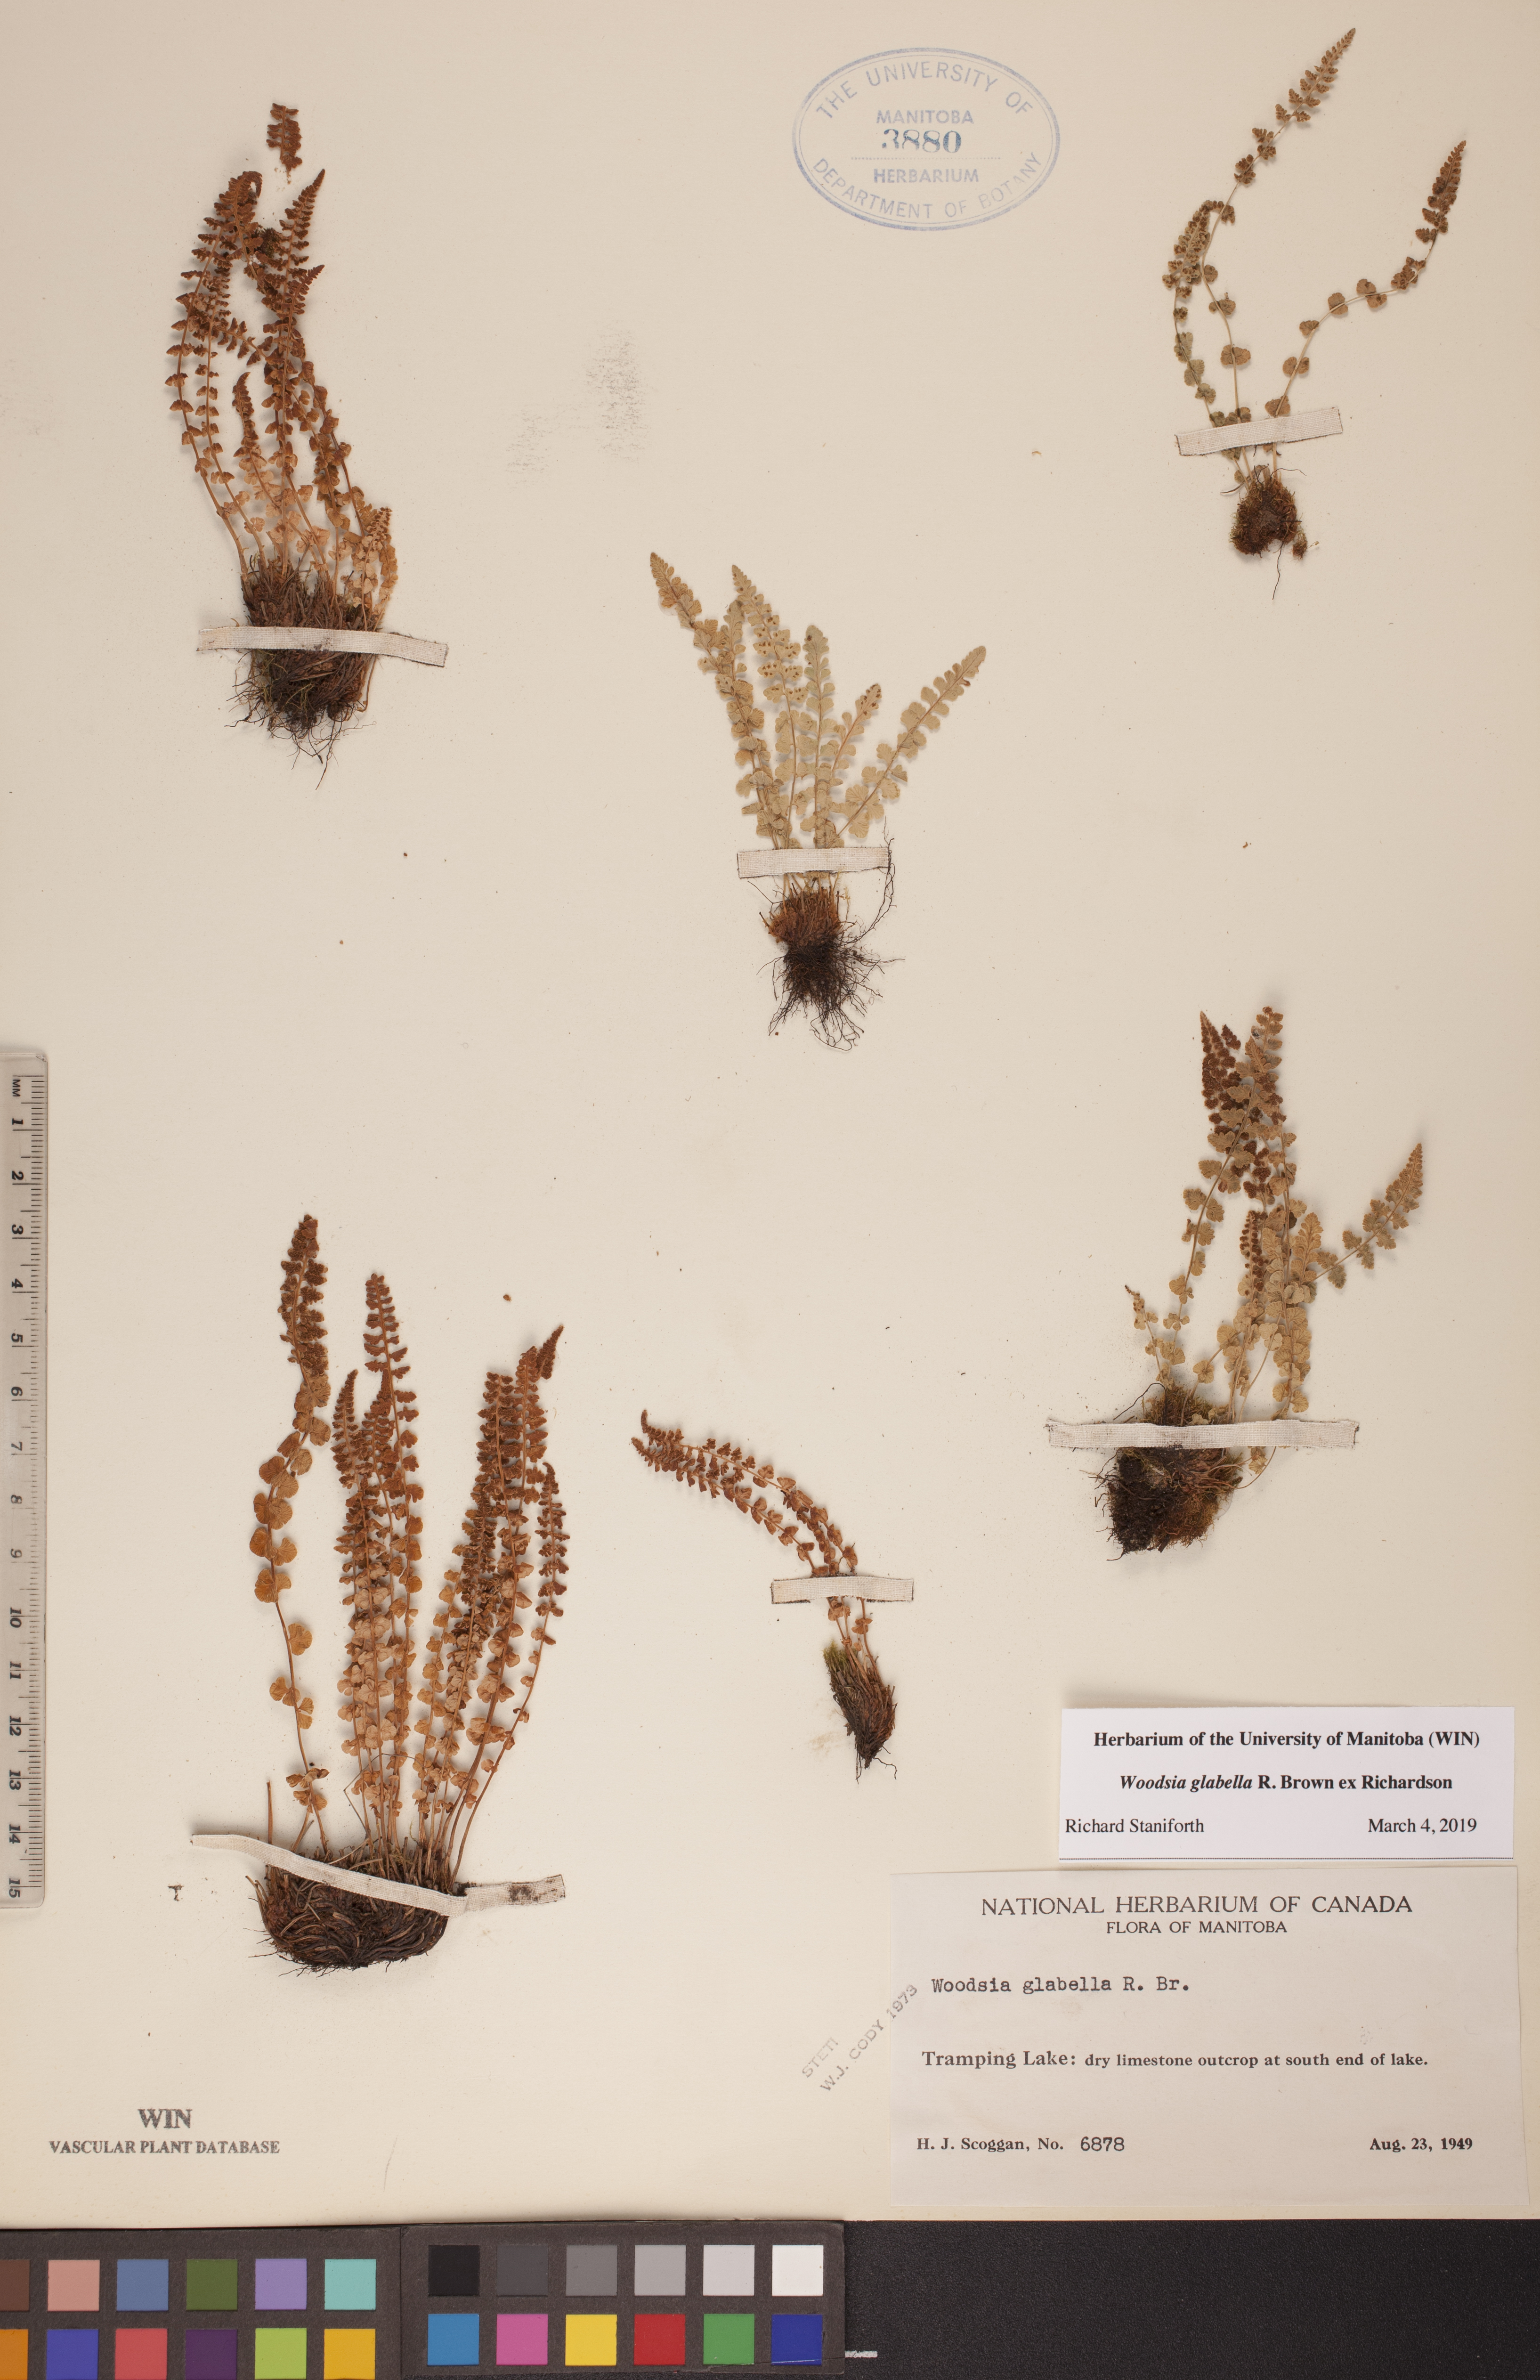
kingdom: Plantae
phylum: Tracheophyta
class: Polypodiopsida
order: Polypodiales
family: Woodsiaceae
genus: Woodsia
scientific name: Woodsia glabella
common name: Smooth woodsia
